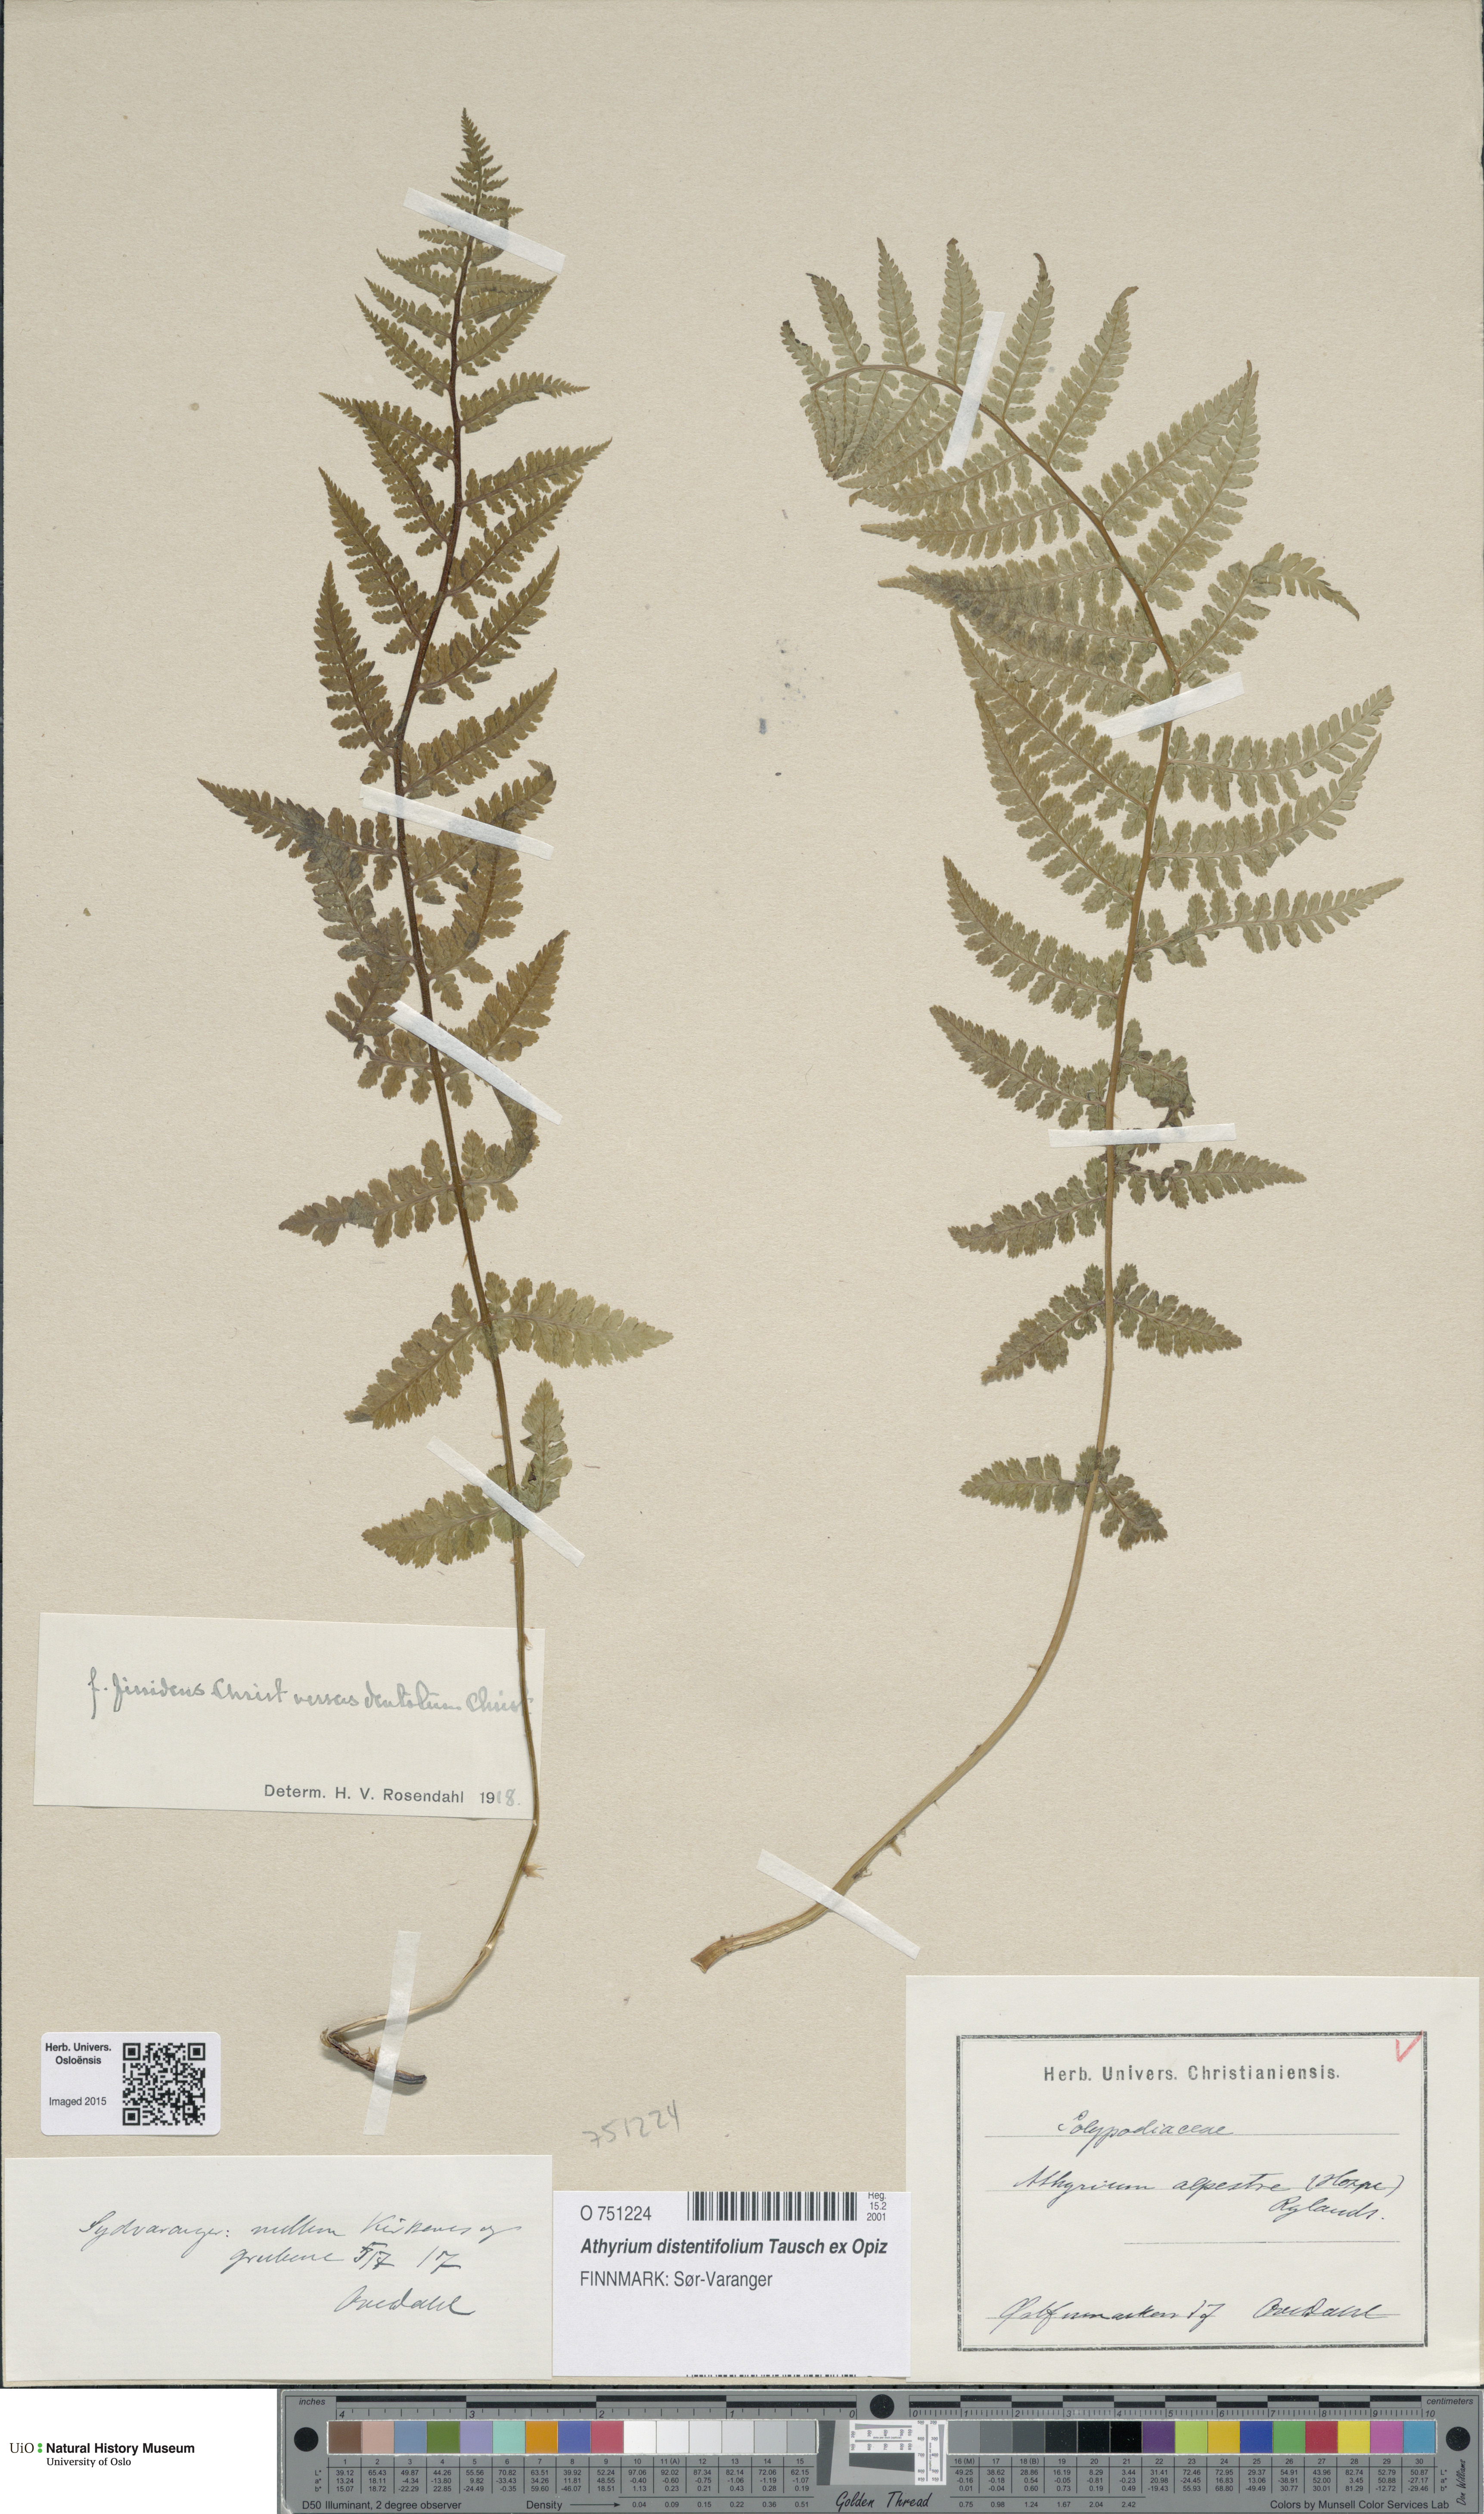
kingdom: Plantae
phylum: Tracheophyta
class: Polypodiopsida
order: Polypodiales
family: Athyriaceae
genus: Pseudathyrium
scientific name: Pseudathyrium alpestre
